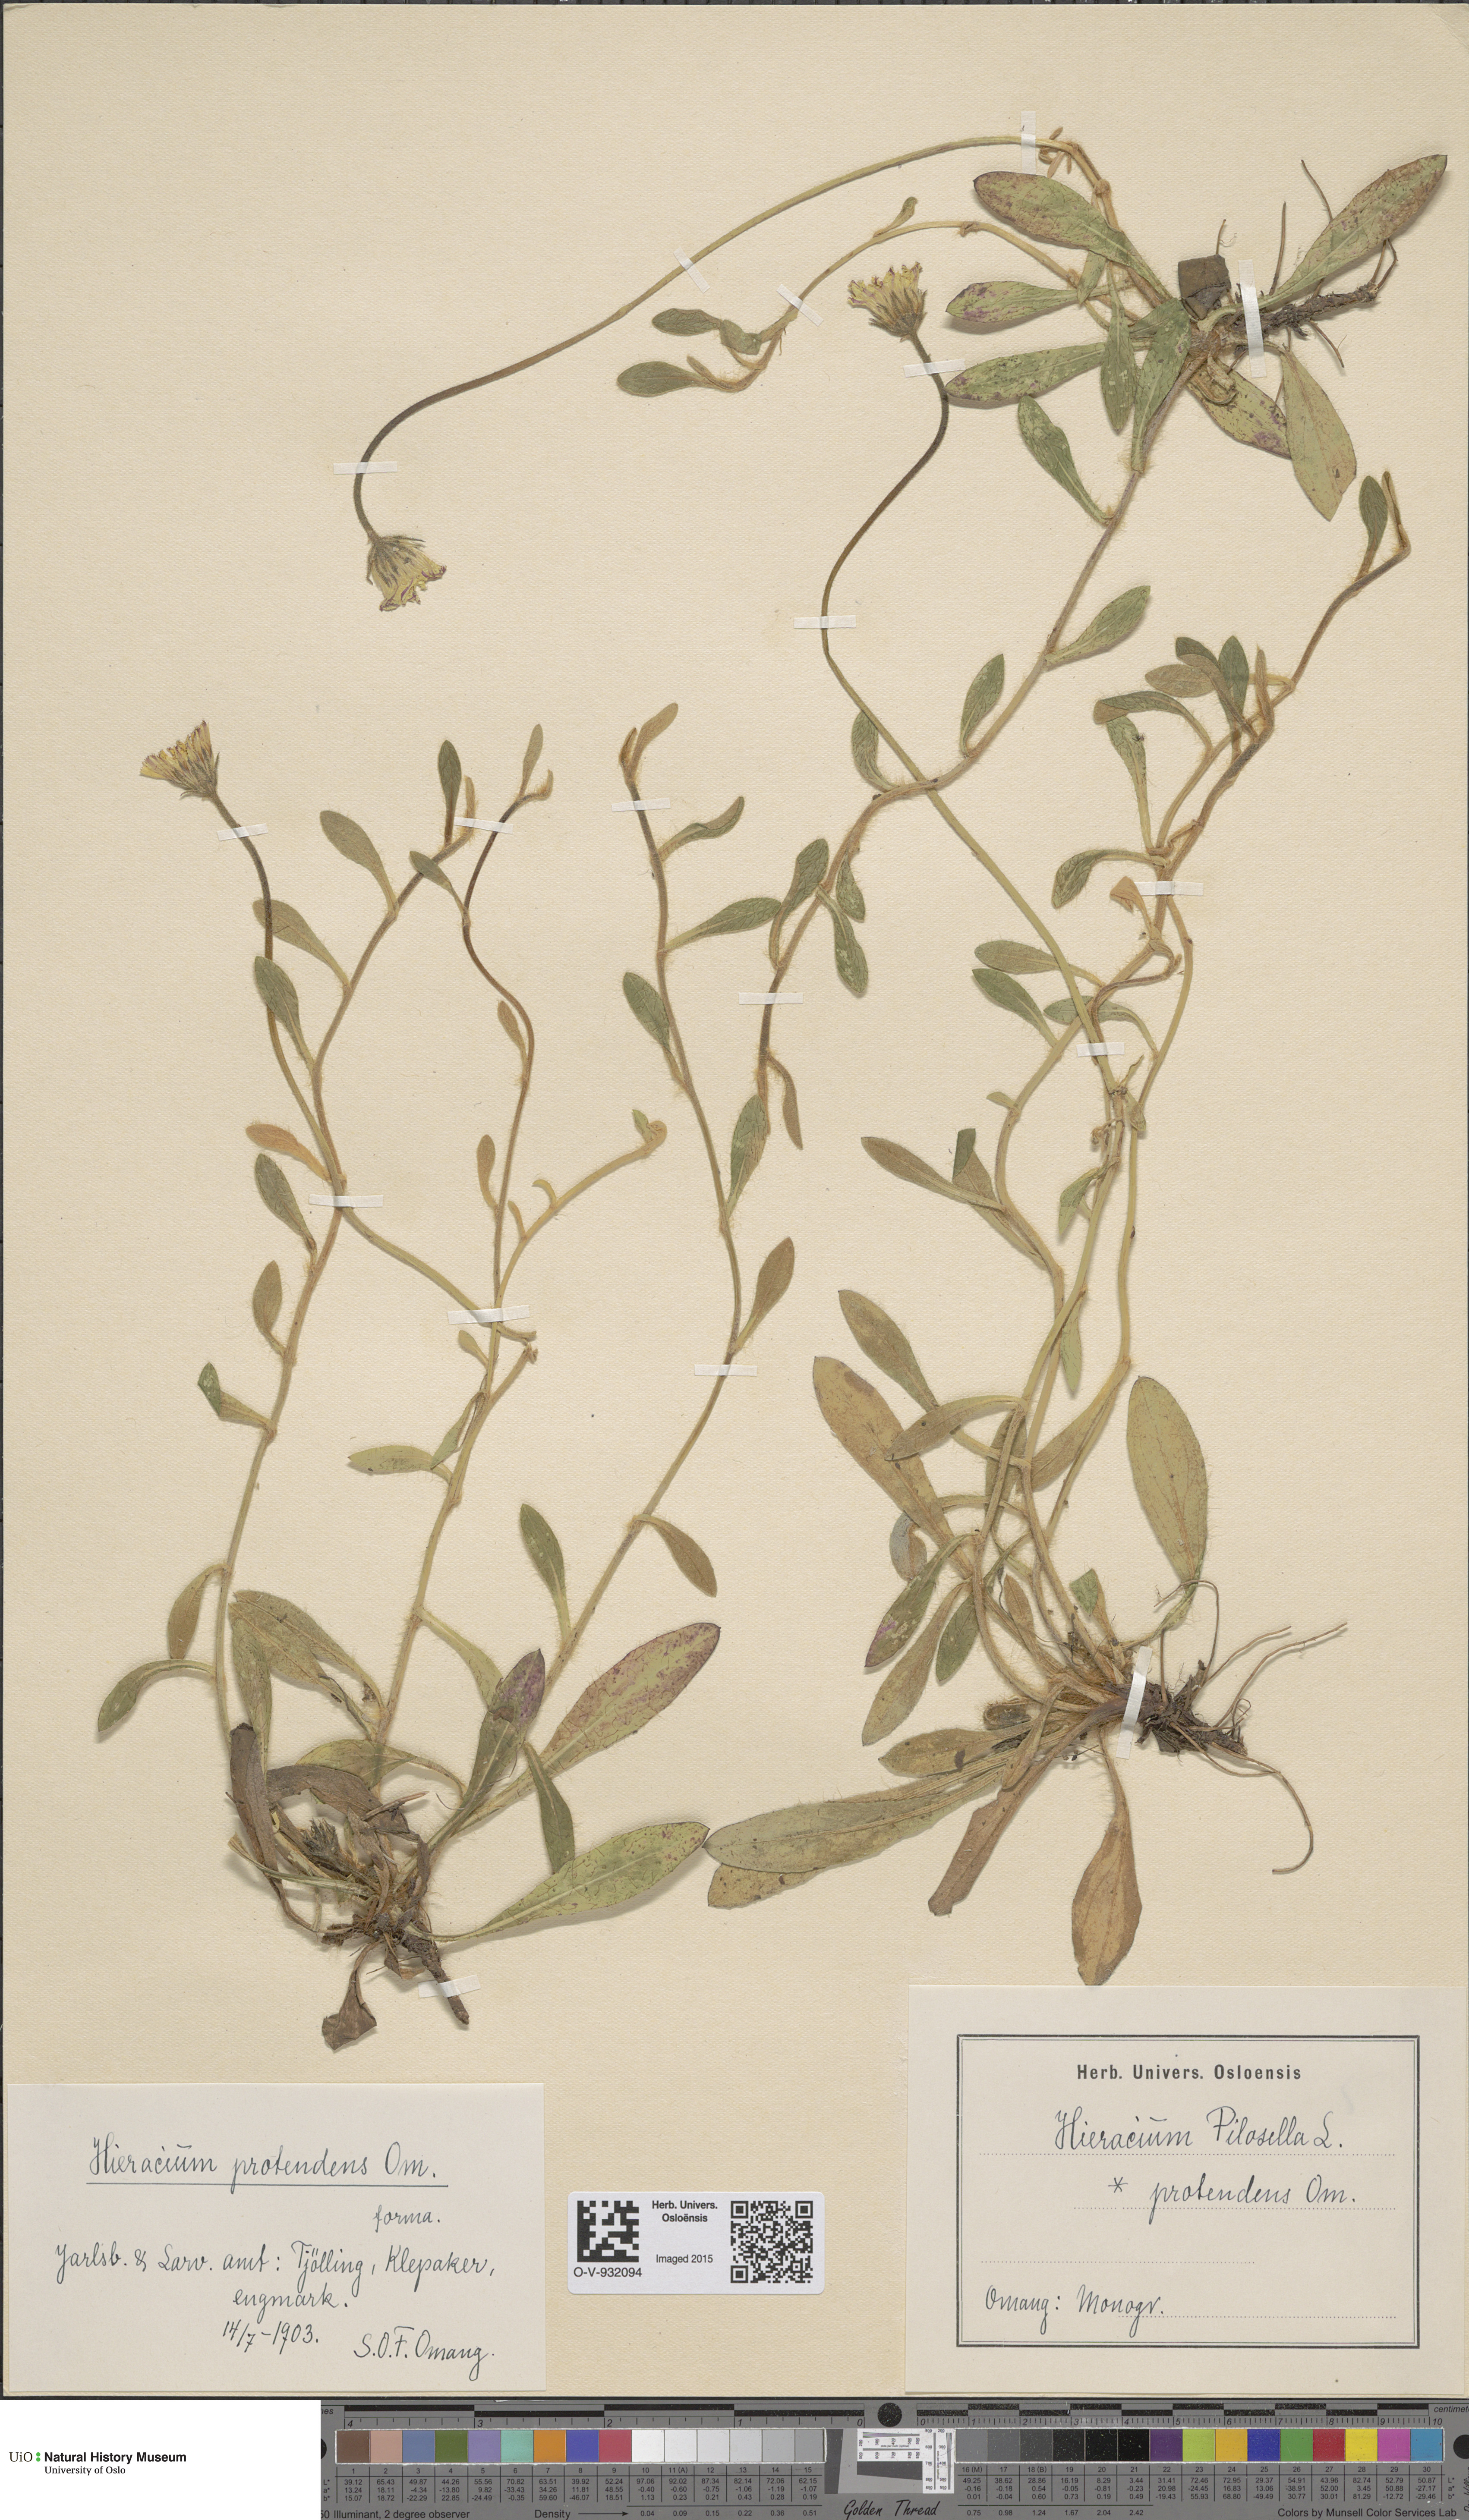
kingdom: Plantae
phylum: Tracheophyta
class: Magnoliopsida
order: Asterales
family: Asteraceae
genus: Pilosella
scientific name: Pilosella officinarum
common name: Mouse-ear hawkweed
